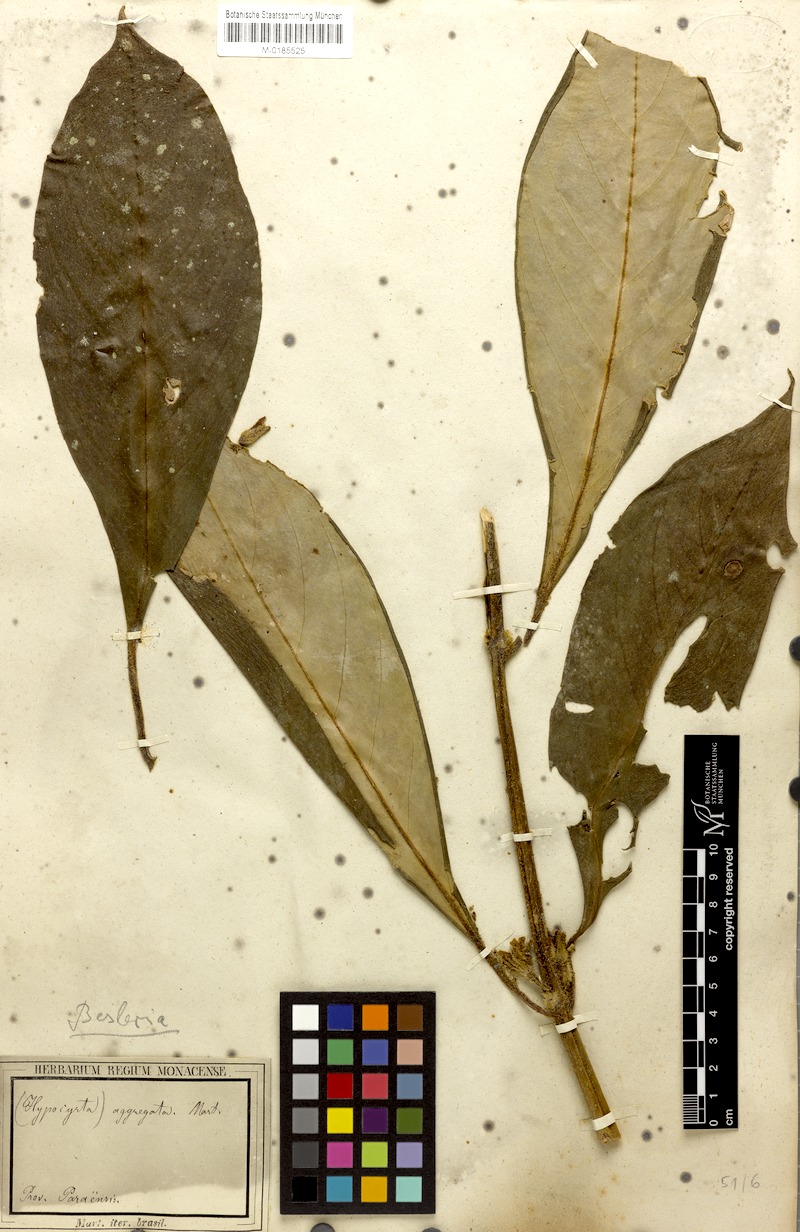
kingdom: Plantae
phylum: Tracheophyta
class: Magnoliopsida
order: Lamiales
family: Gesneriaceae
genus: Besleria
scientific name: Besleria aggregata
